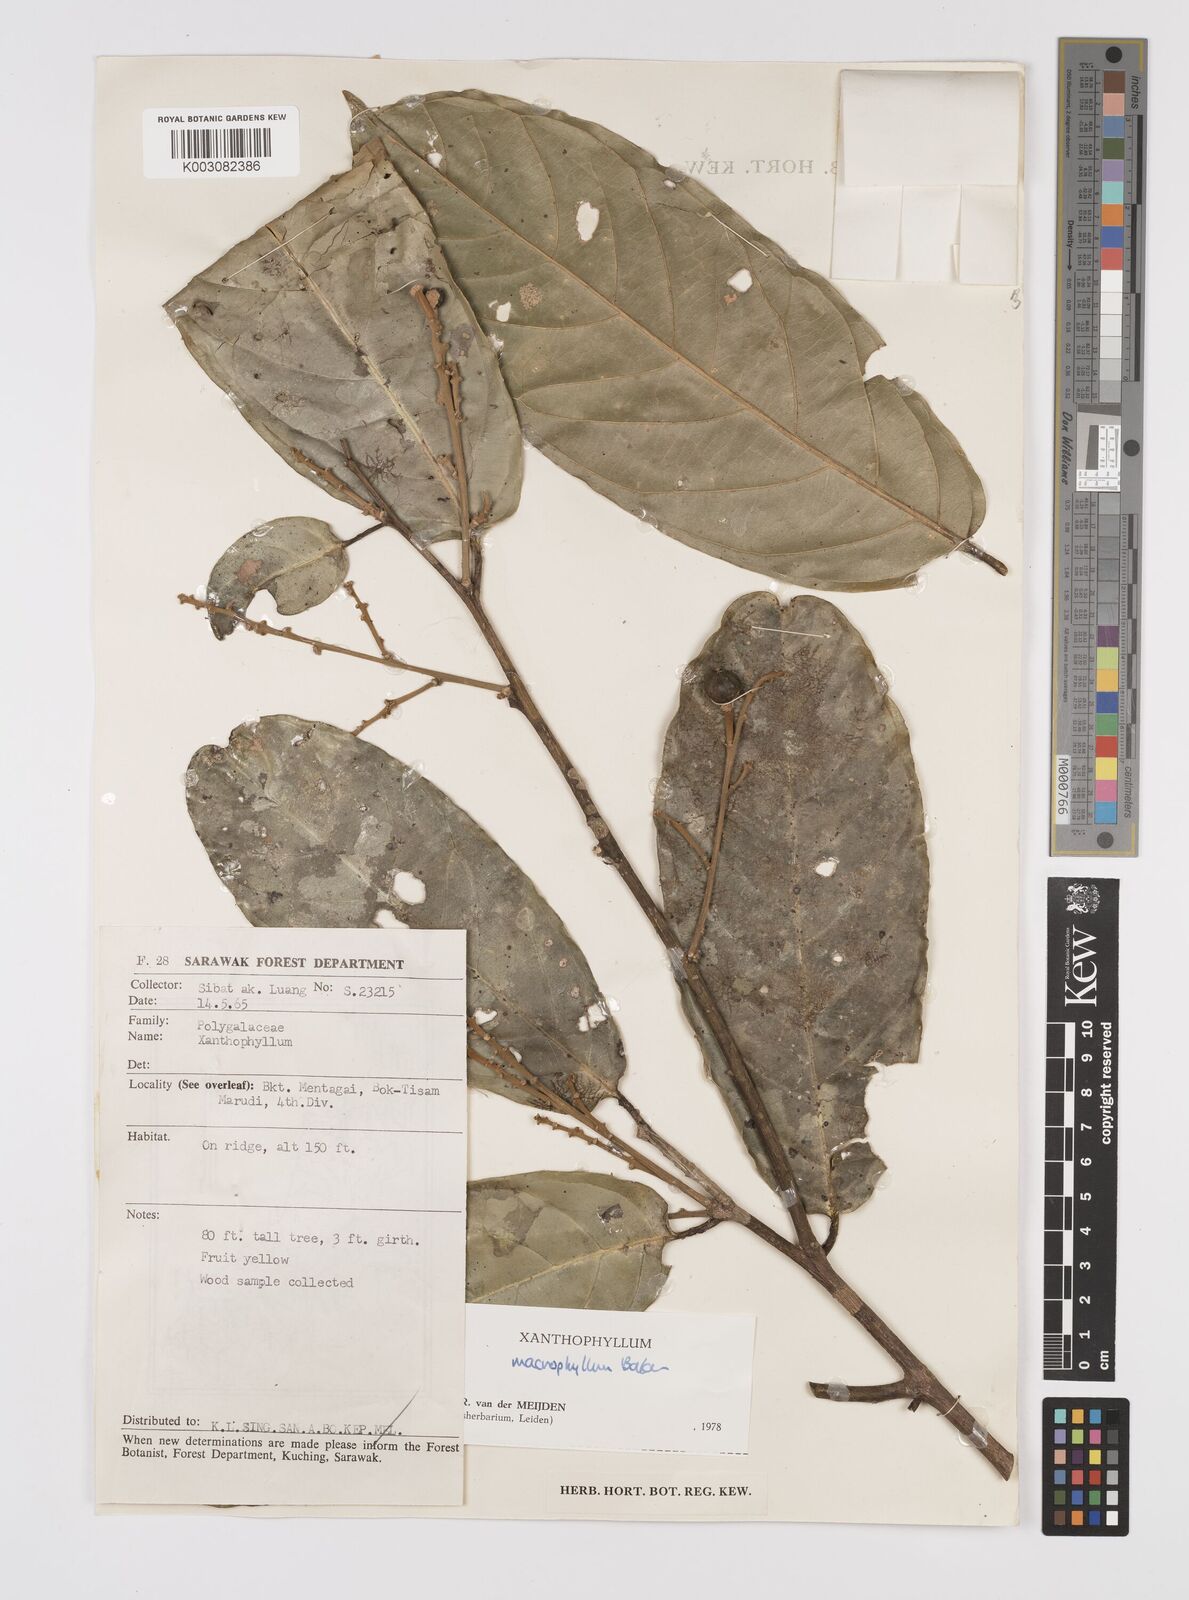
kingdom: Plantae
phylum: Tracheophyta
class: Magnoliopsida
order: Fabales
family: Polygalaceae
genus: Xanthophyllum
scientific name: Xanthophyllum macrophyllum
